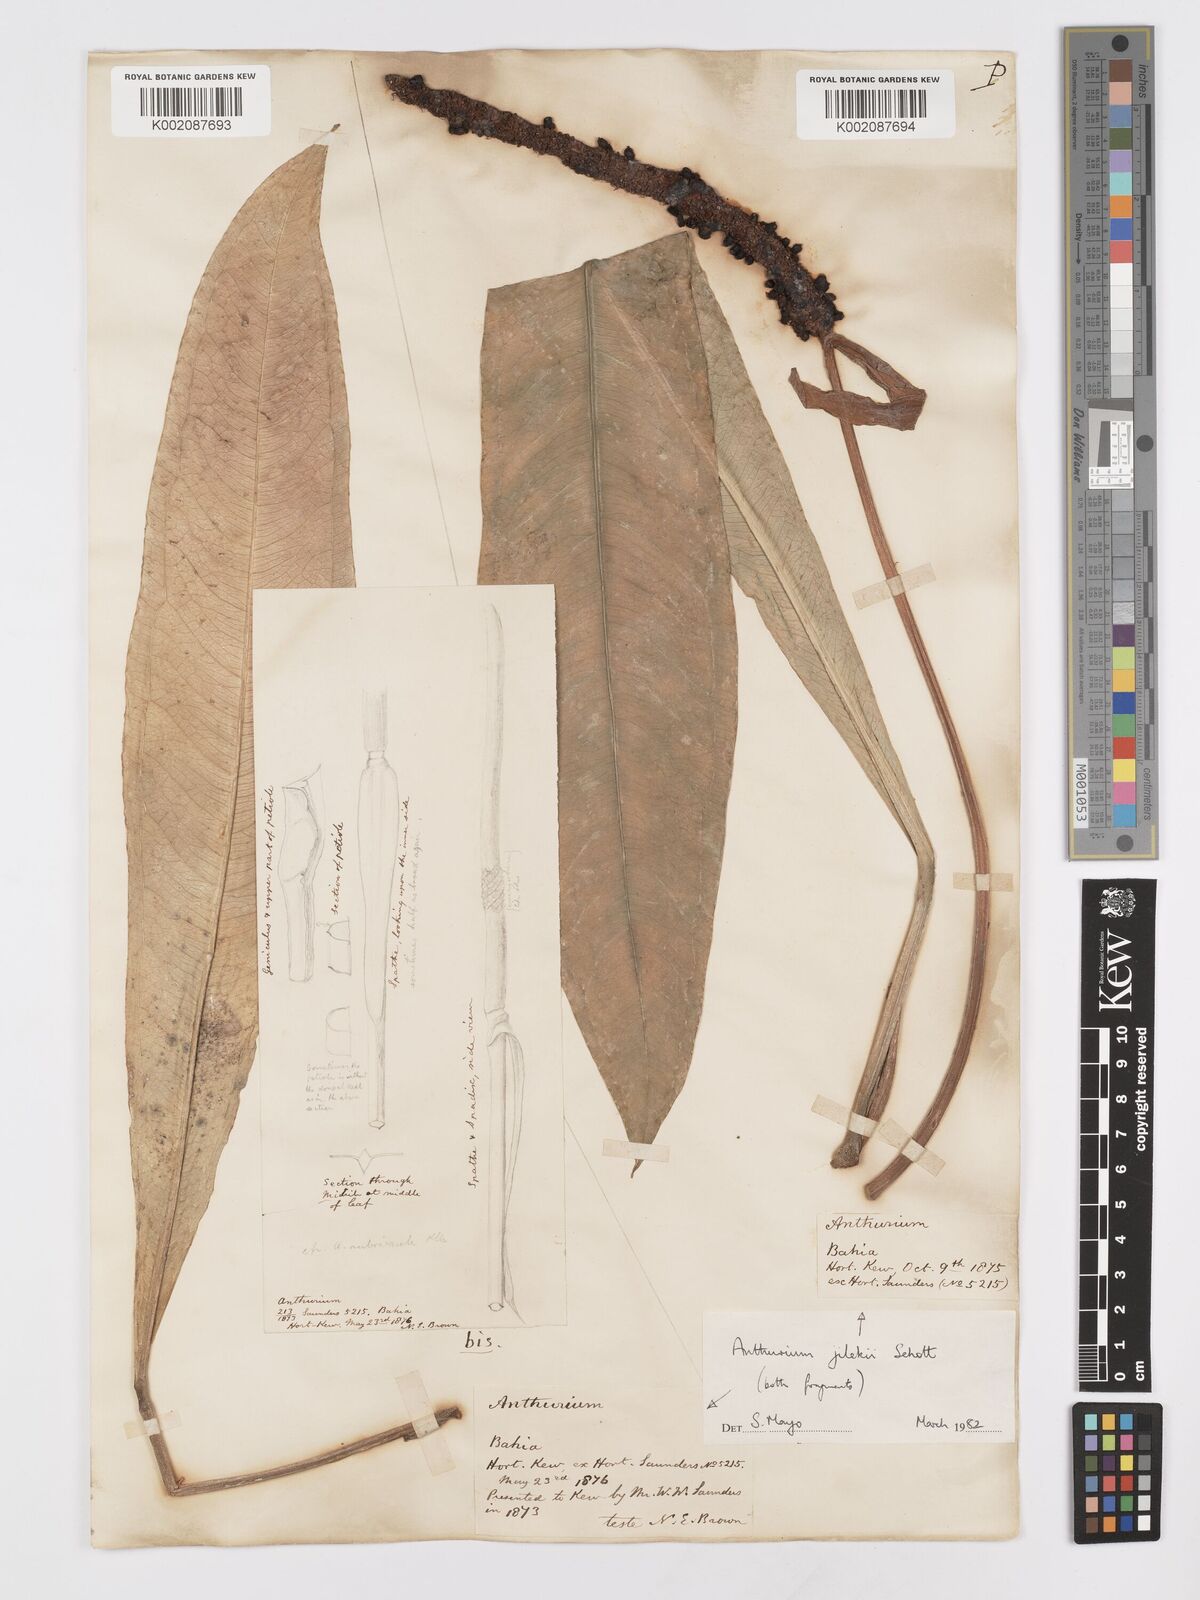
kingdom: Plantae
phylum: Tracheophyta
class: Liliopsida
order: Alismatales
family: Araceae
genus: Anthurium
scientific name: Anthurium jilekii
